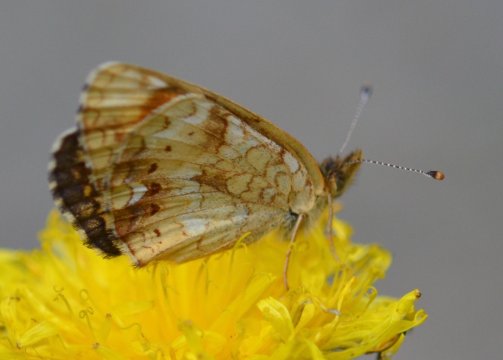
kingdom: Animalia
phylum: Arthropoda
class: Insecta
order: Lepidoptera
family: Nymphalidae
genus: Phyciodes
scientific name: Phyciodes tharos
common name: Field Crescent
